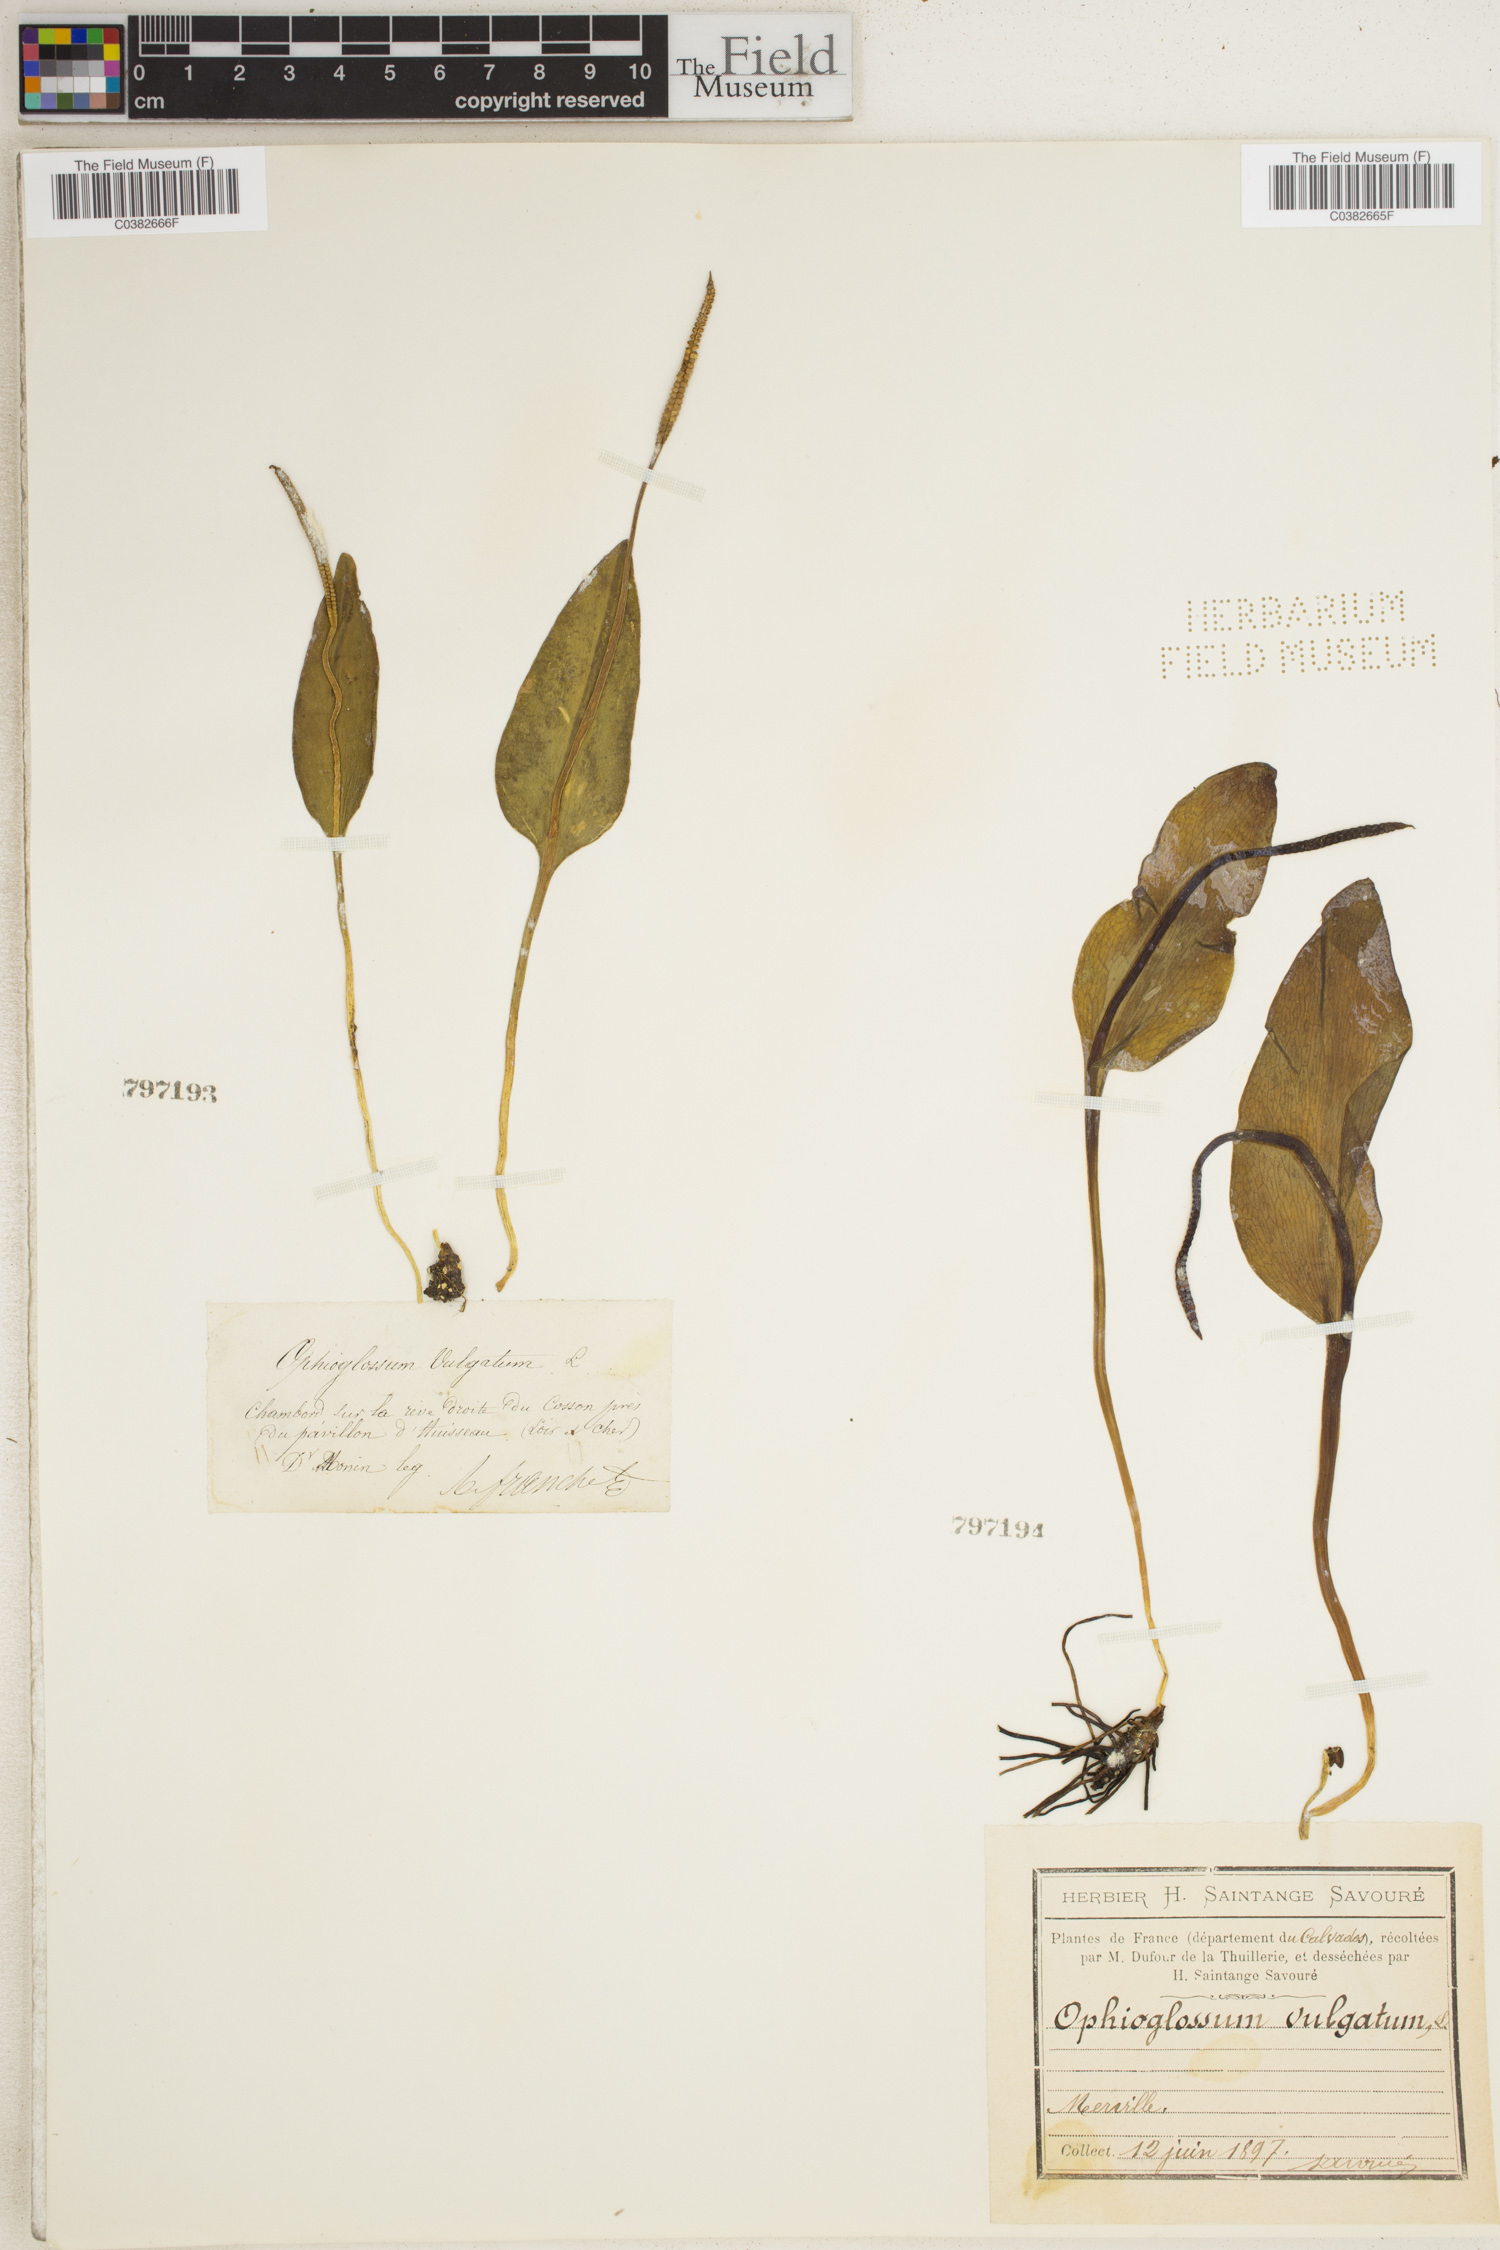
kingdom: Plantae
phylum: Tracheophyta
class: Polypodiopsida
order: Ophioglossales
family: Ophioglossaceae
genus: Ophioglossum
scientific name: Ophioglossum vulgatum
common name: Adder's-tongue
